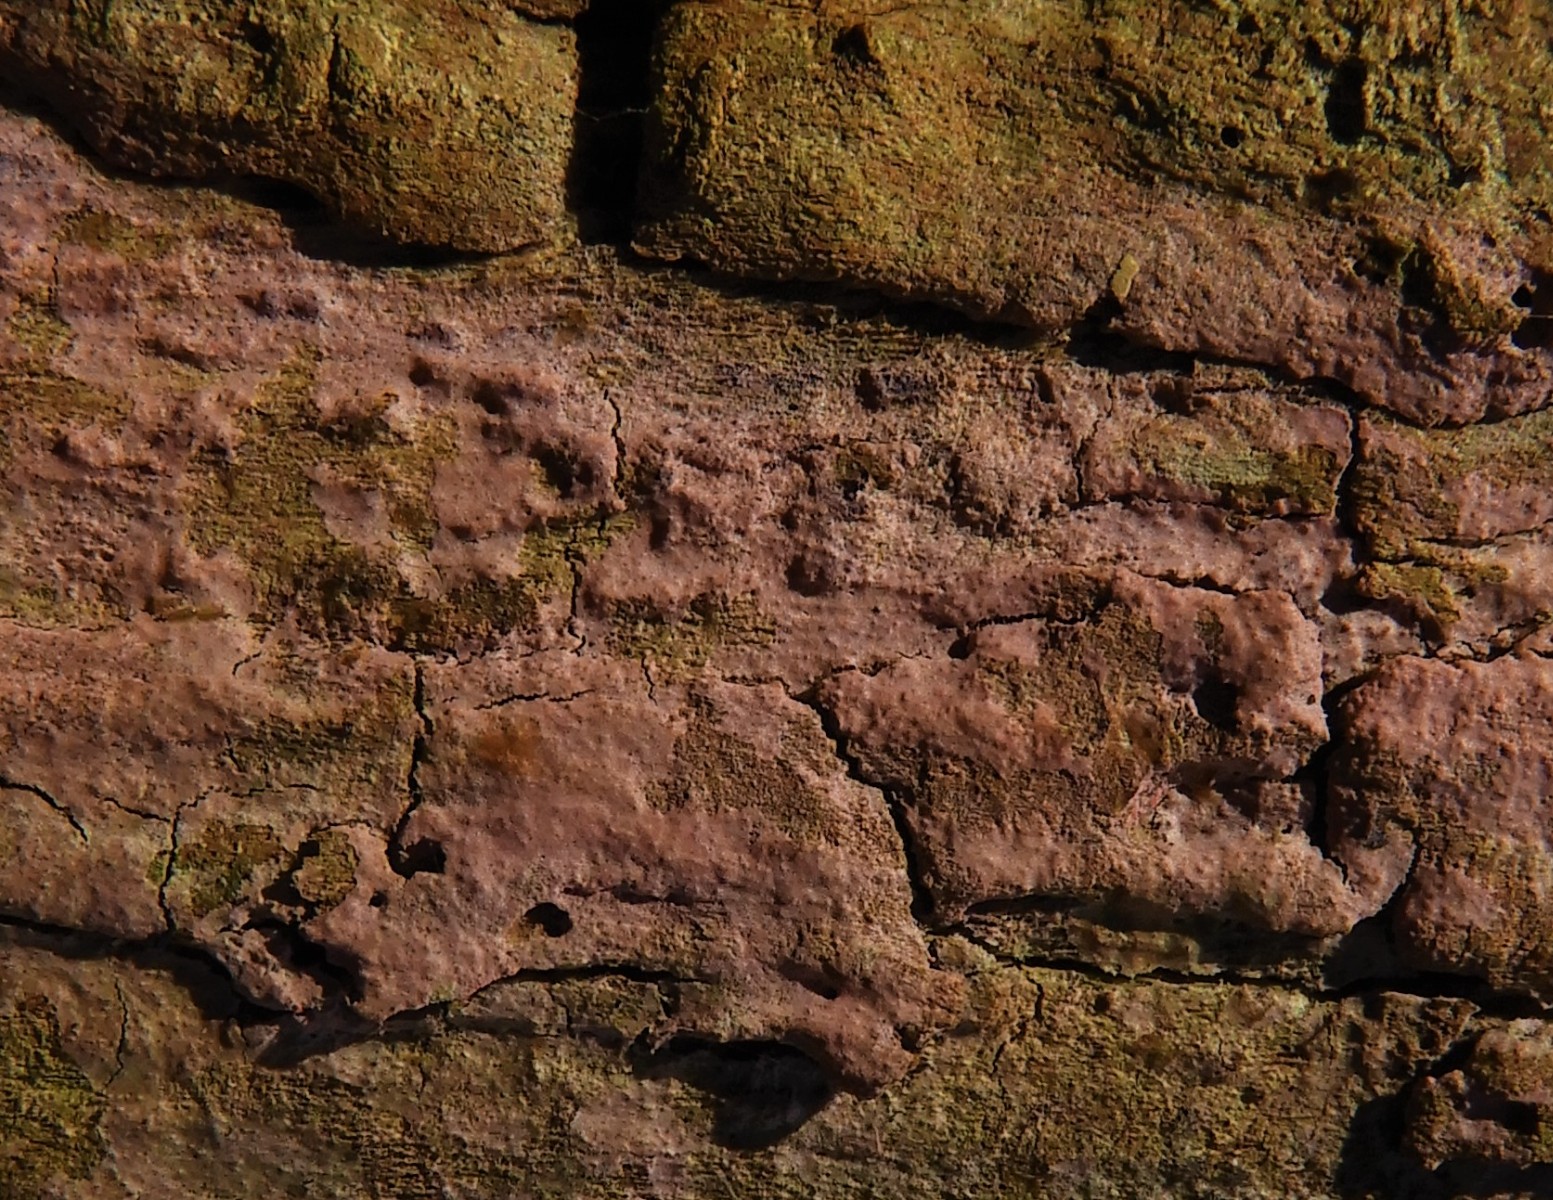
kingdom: Fungi
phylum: Basidiomycota
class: Agaricomycetes
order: Cantharellales
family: Tulasnellaceae
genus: Tulasnella
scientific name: Tulasnella violea
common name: violet ballonhinde
